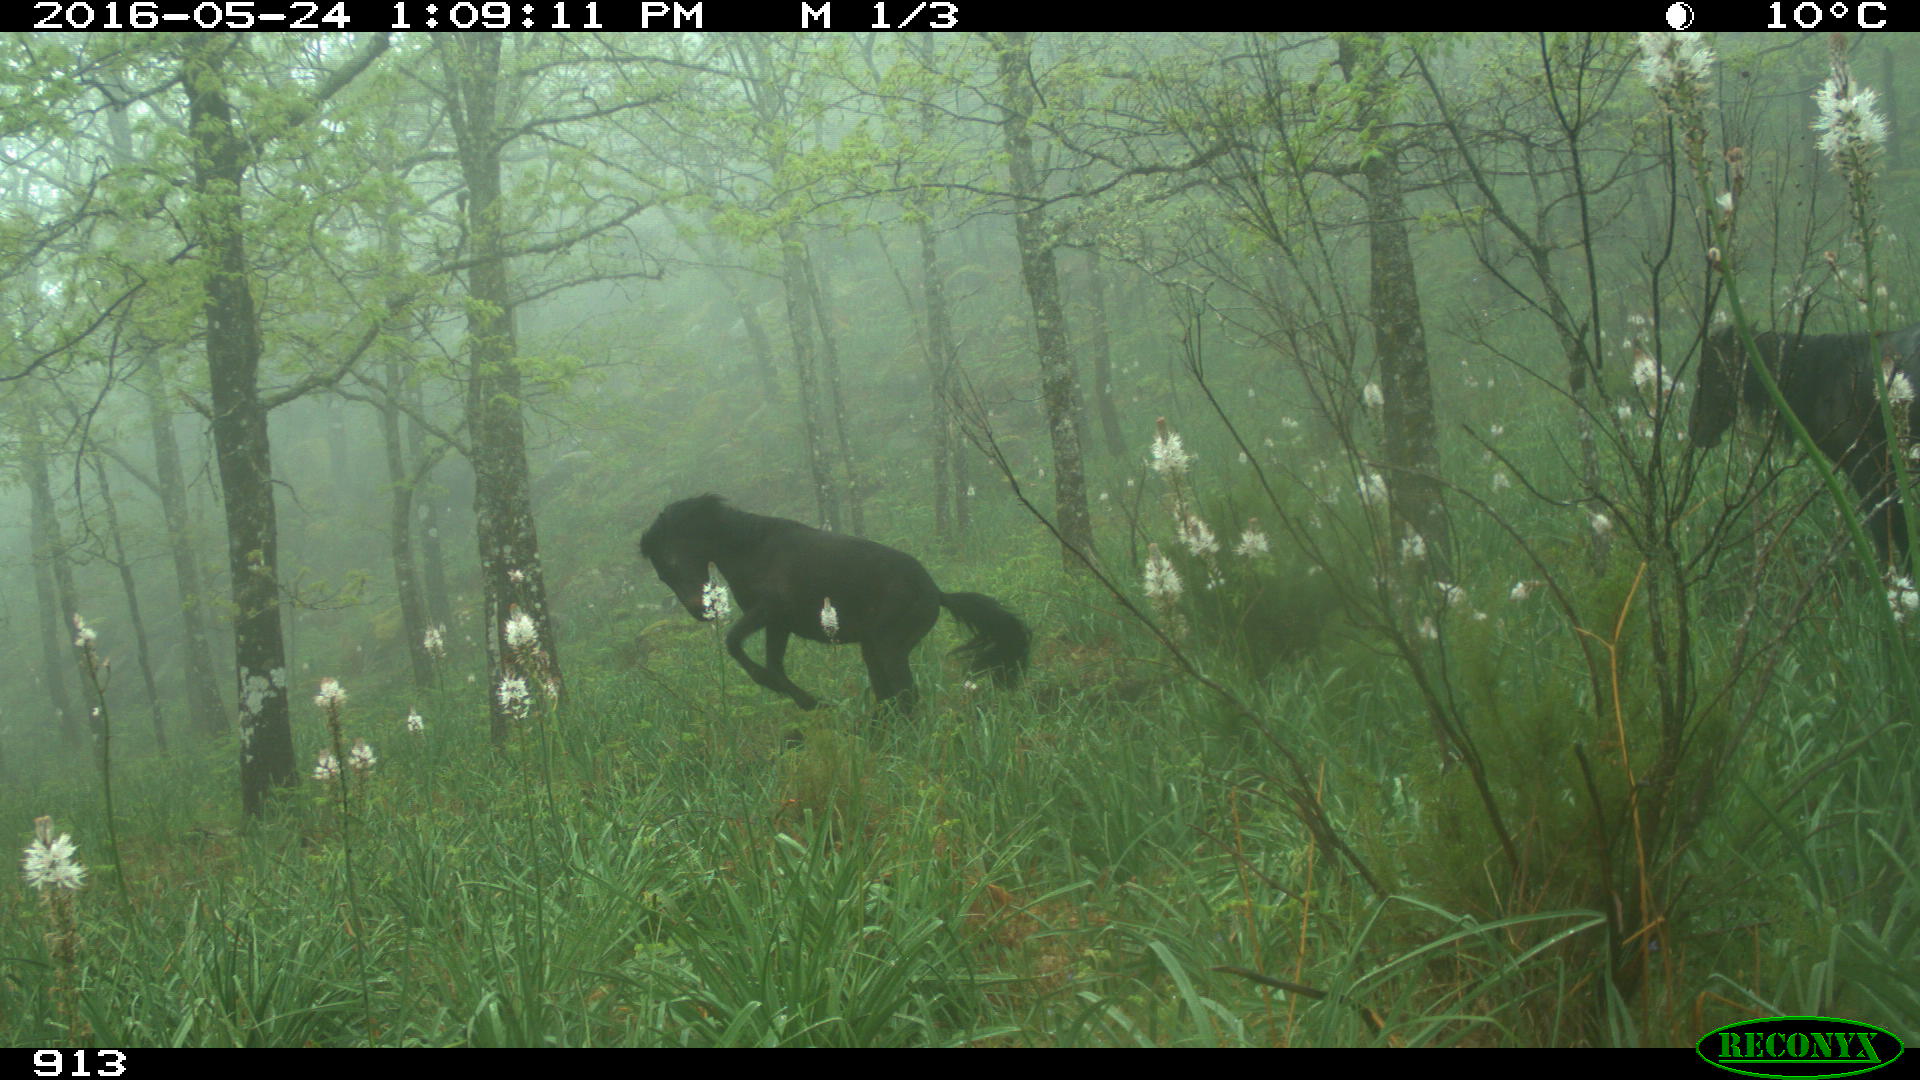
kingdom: Animalia
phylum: Chordata
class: Mammalia
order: Perissodactyla
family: Equidae
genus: Equus
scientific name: Equus caballus
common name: Horse
